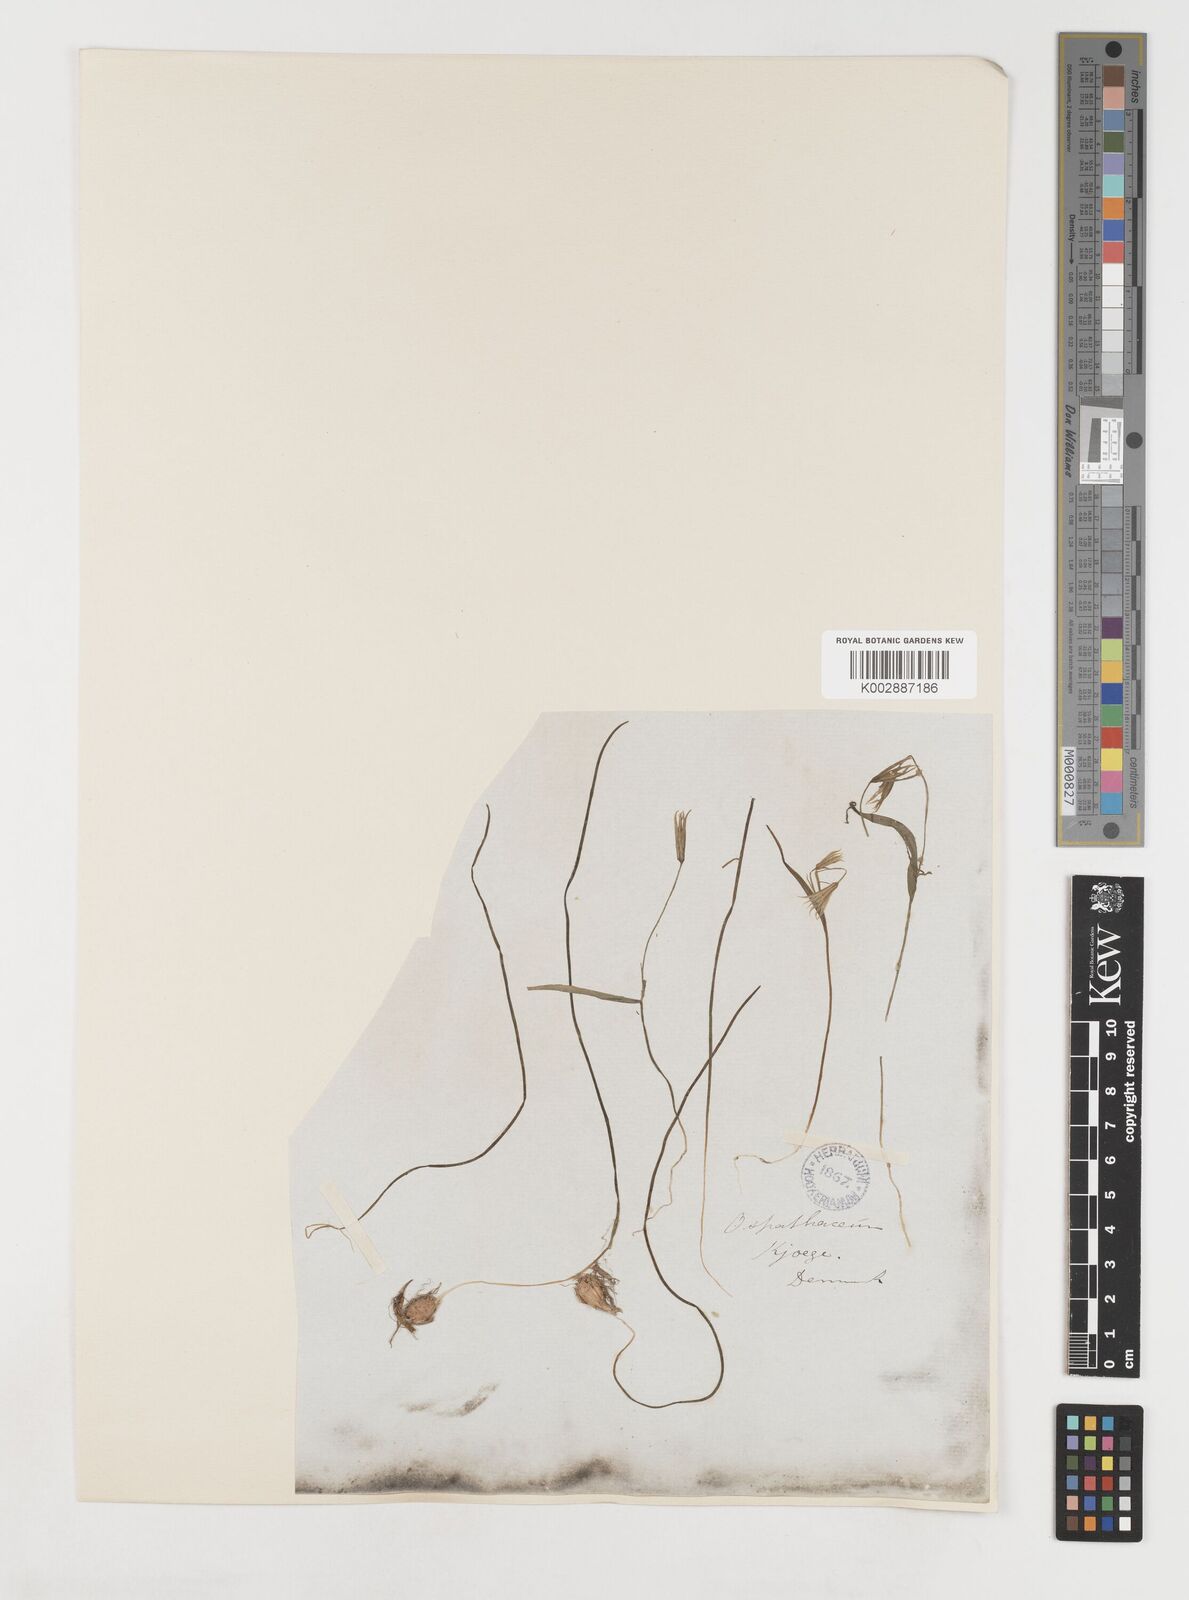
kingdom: Plantae
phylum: Tracheophyta
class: Liliopsida
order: Liliales
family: Liliaceae
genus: Gagea
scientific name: Gagea minima
